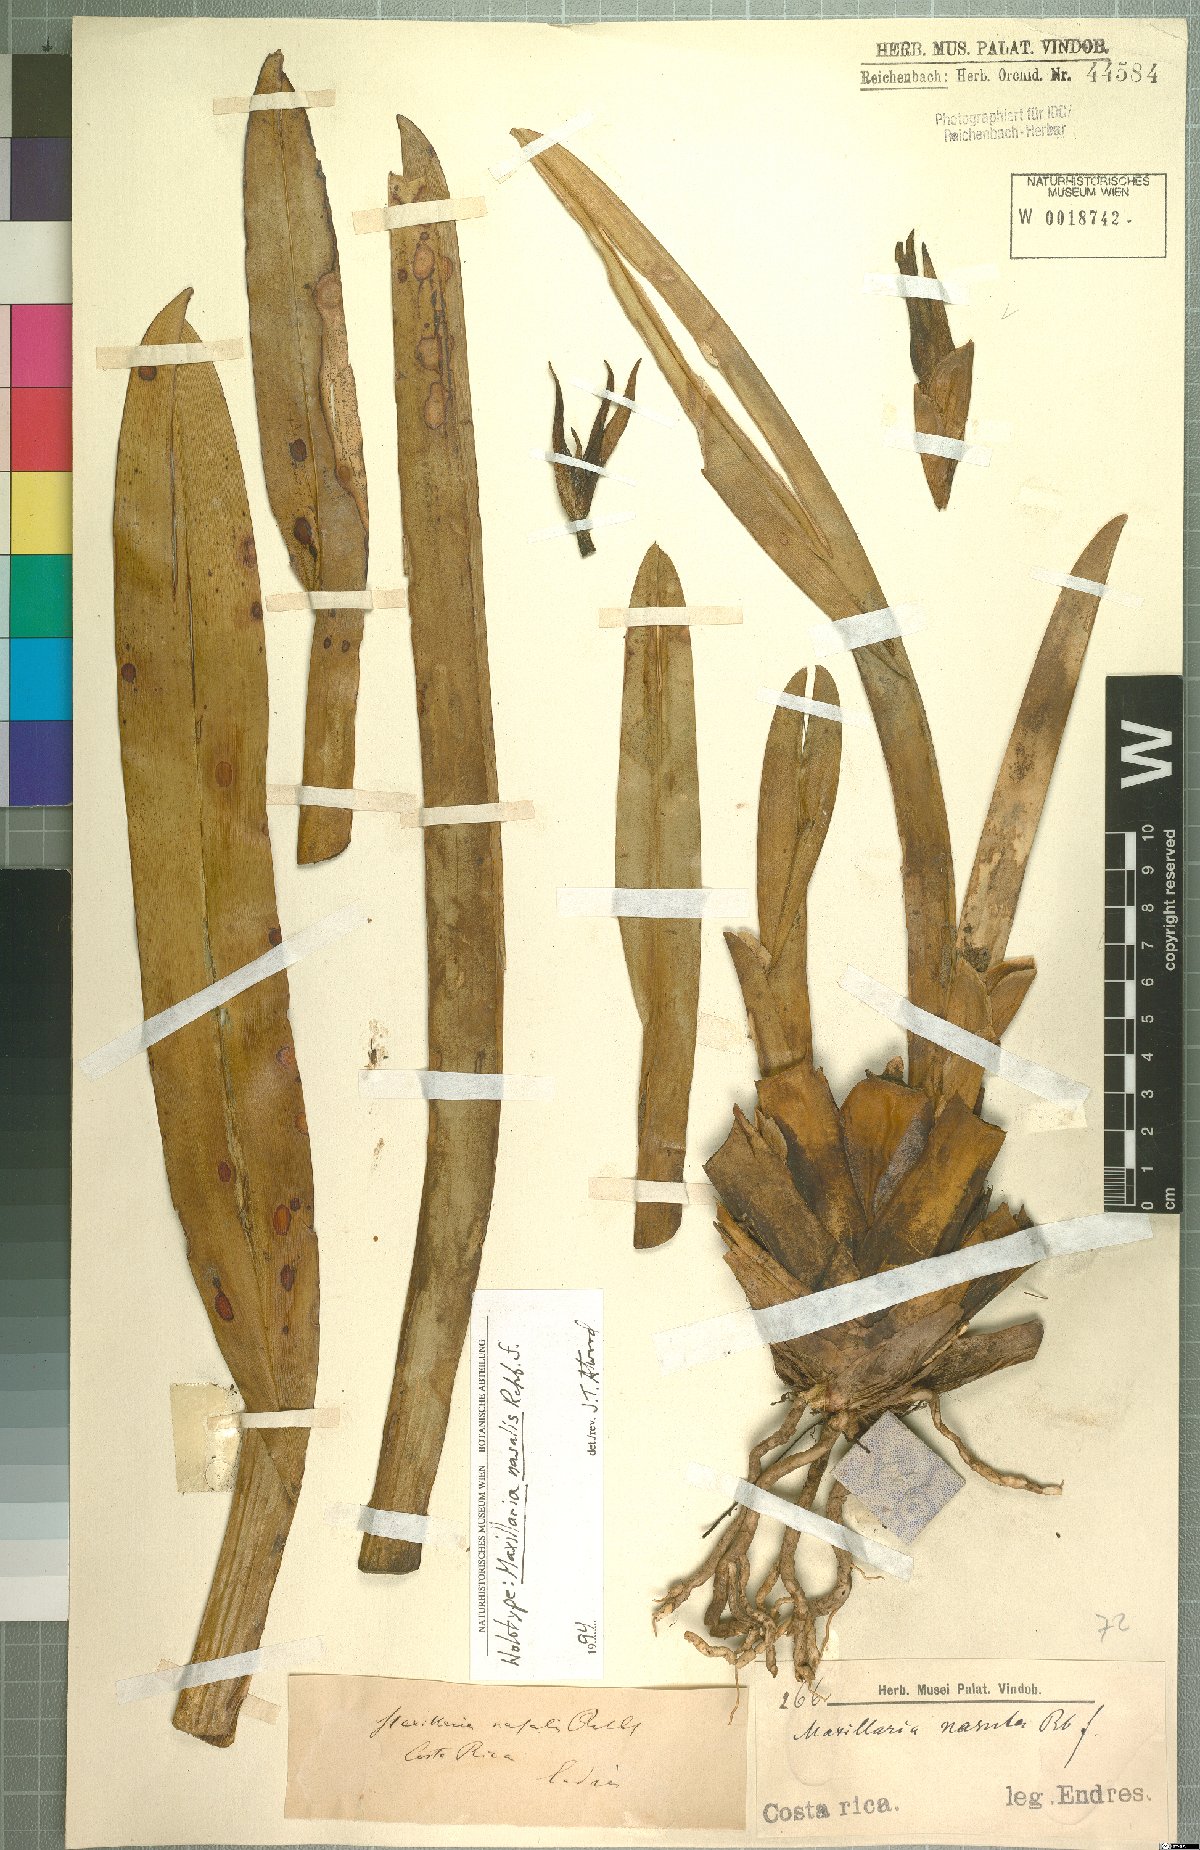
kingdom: Plantae
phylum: Tracheophyta
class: Liliopsida
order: Asparagales
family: Orchidaceae
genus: Maxillaria
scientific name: Maxillaria nasuta
